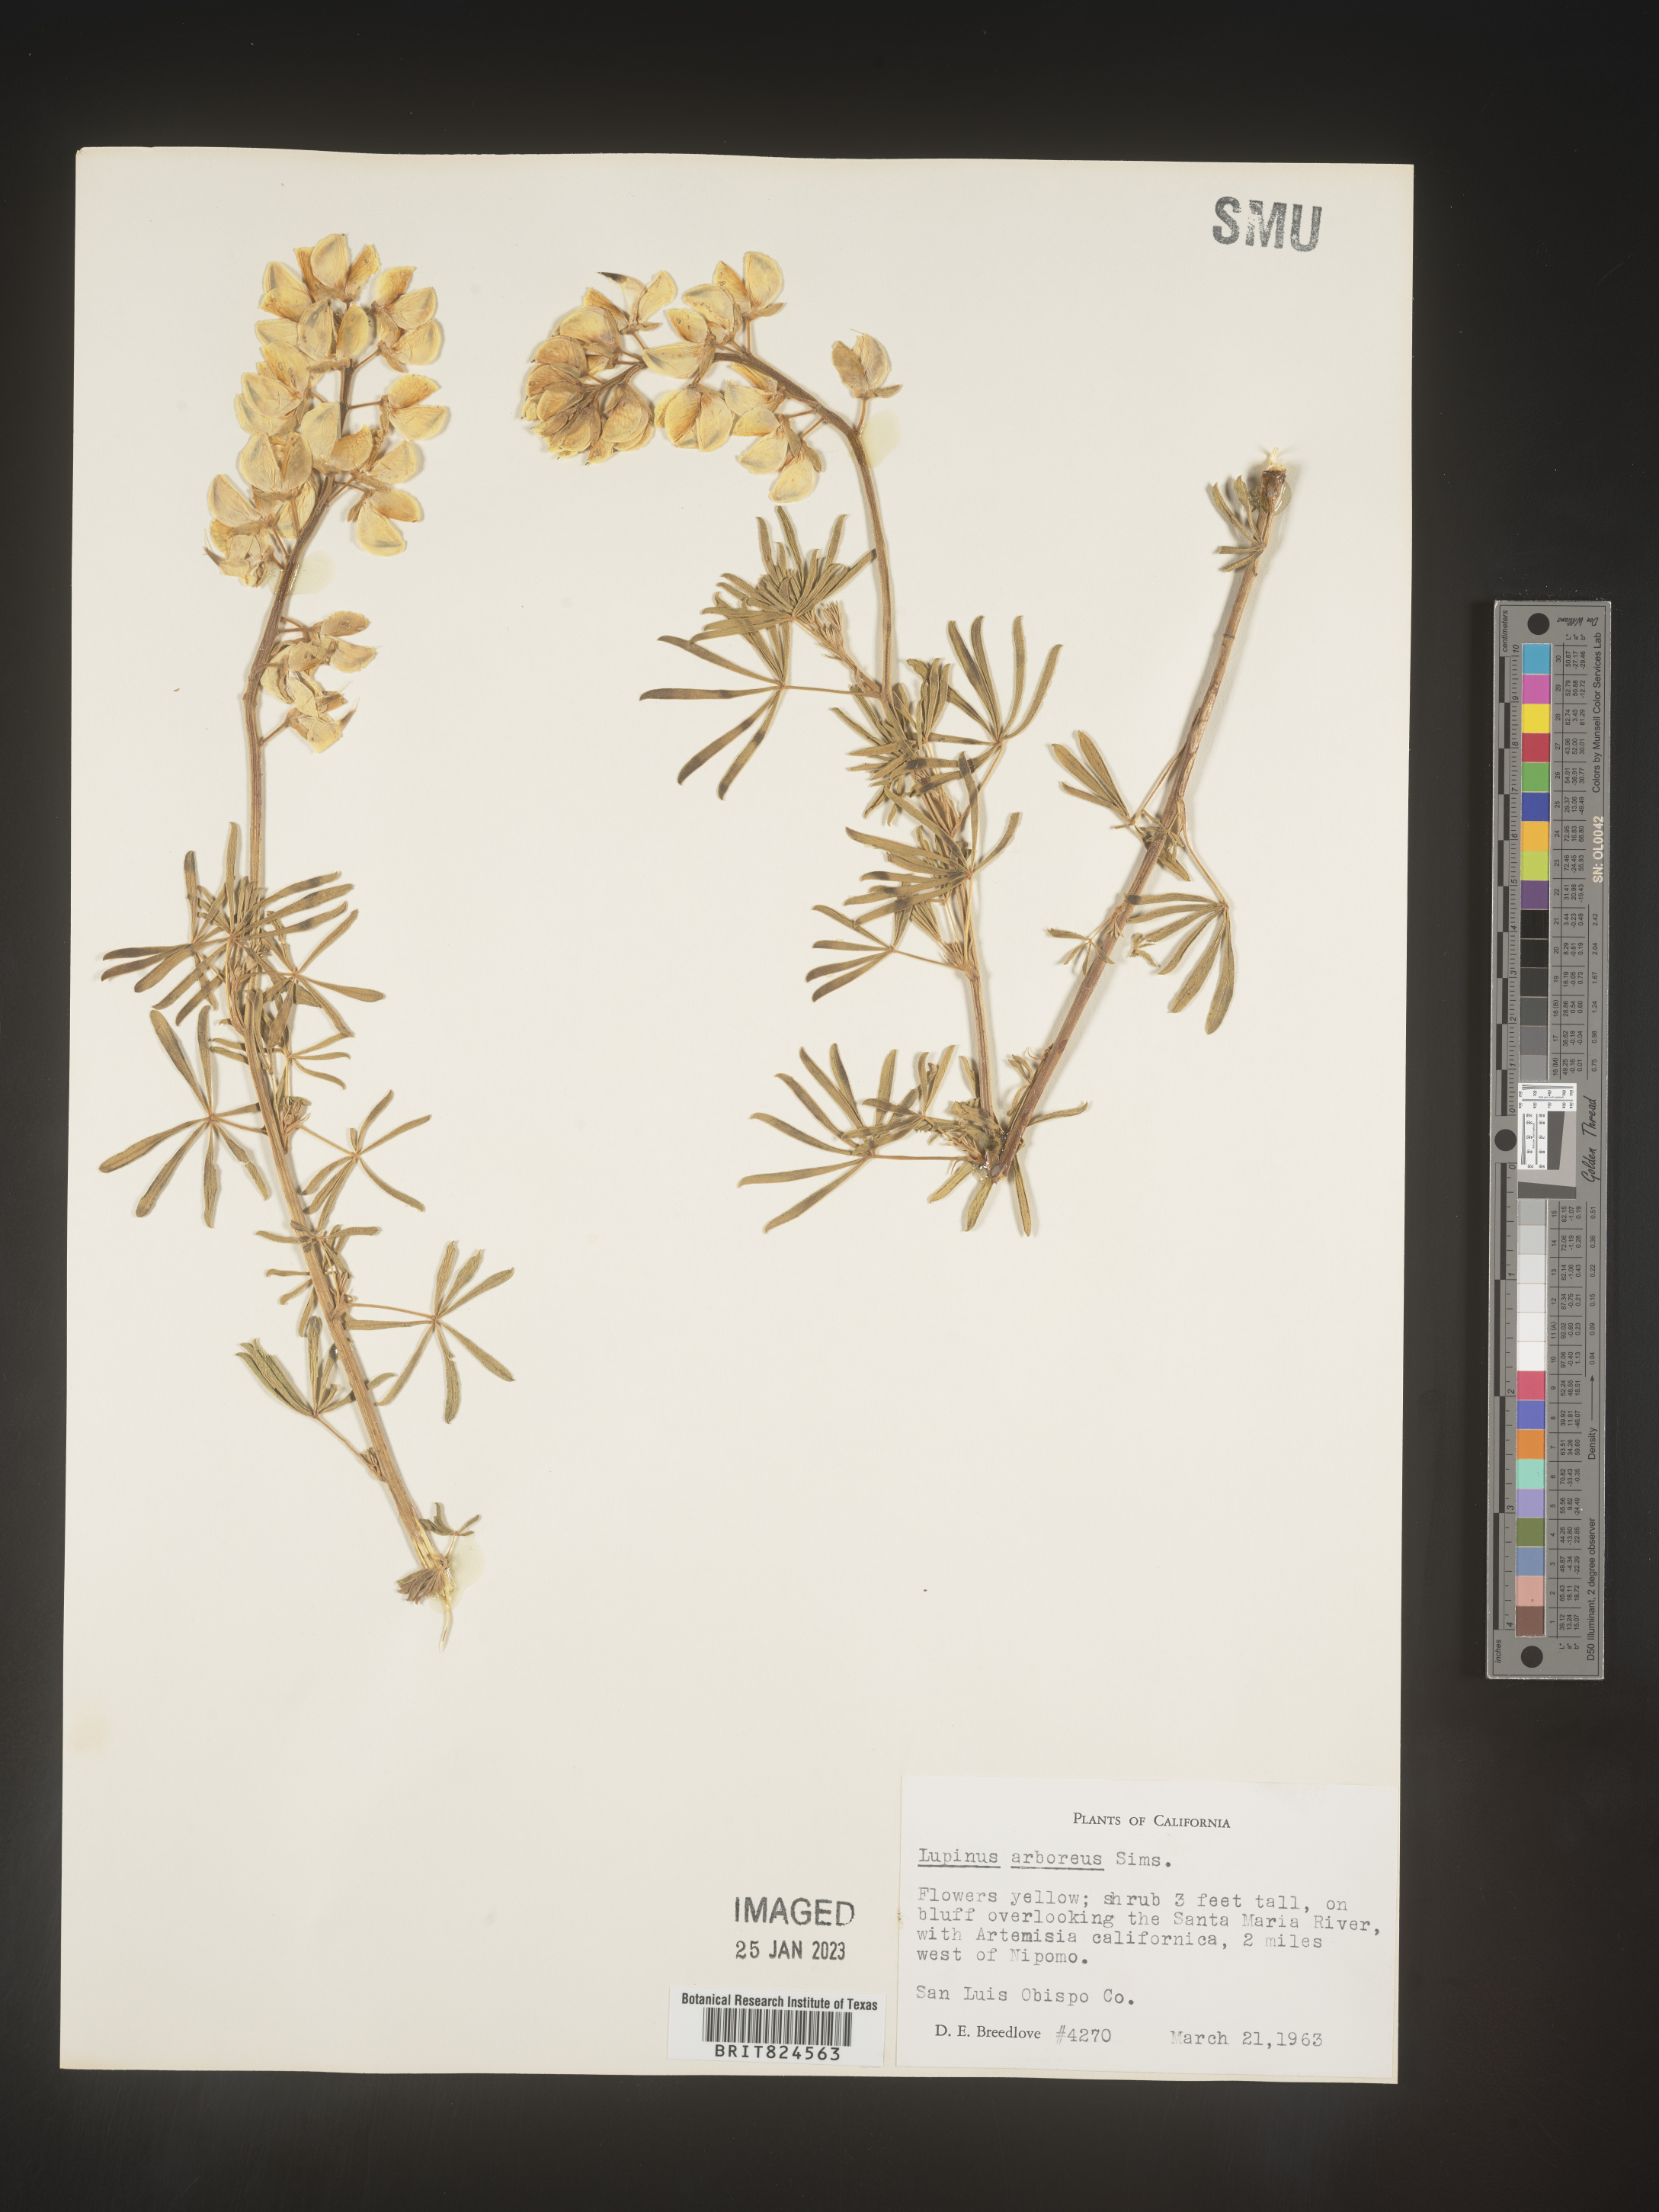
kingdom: Plantae
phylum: Tracheophyta
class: Magnoliopsida
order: Fabales
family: Fabaceae
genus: Lupinus
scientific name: Lupinus arboreus
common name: Yellow bush lupine
